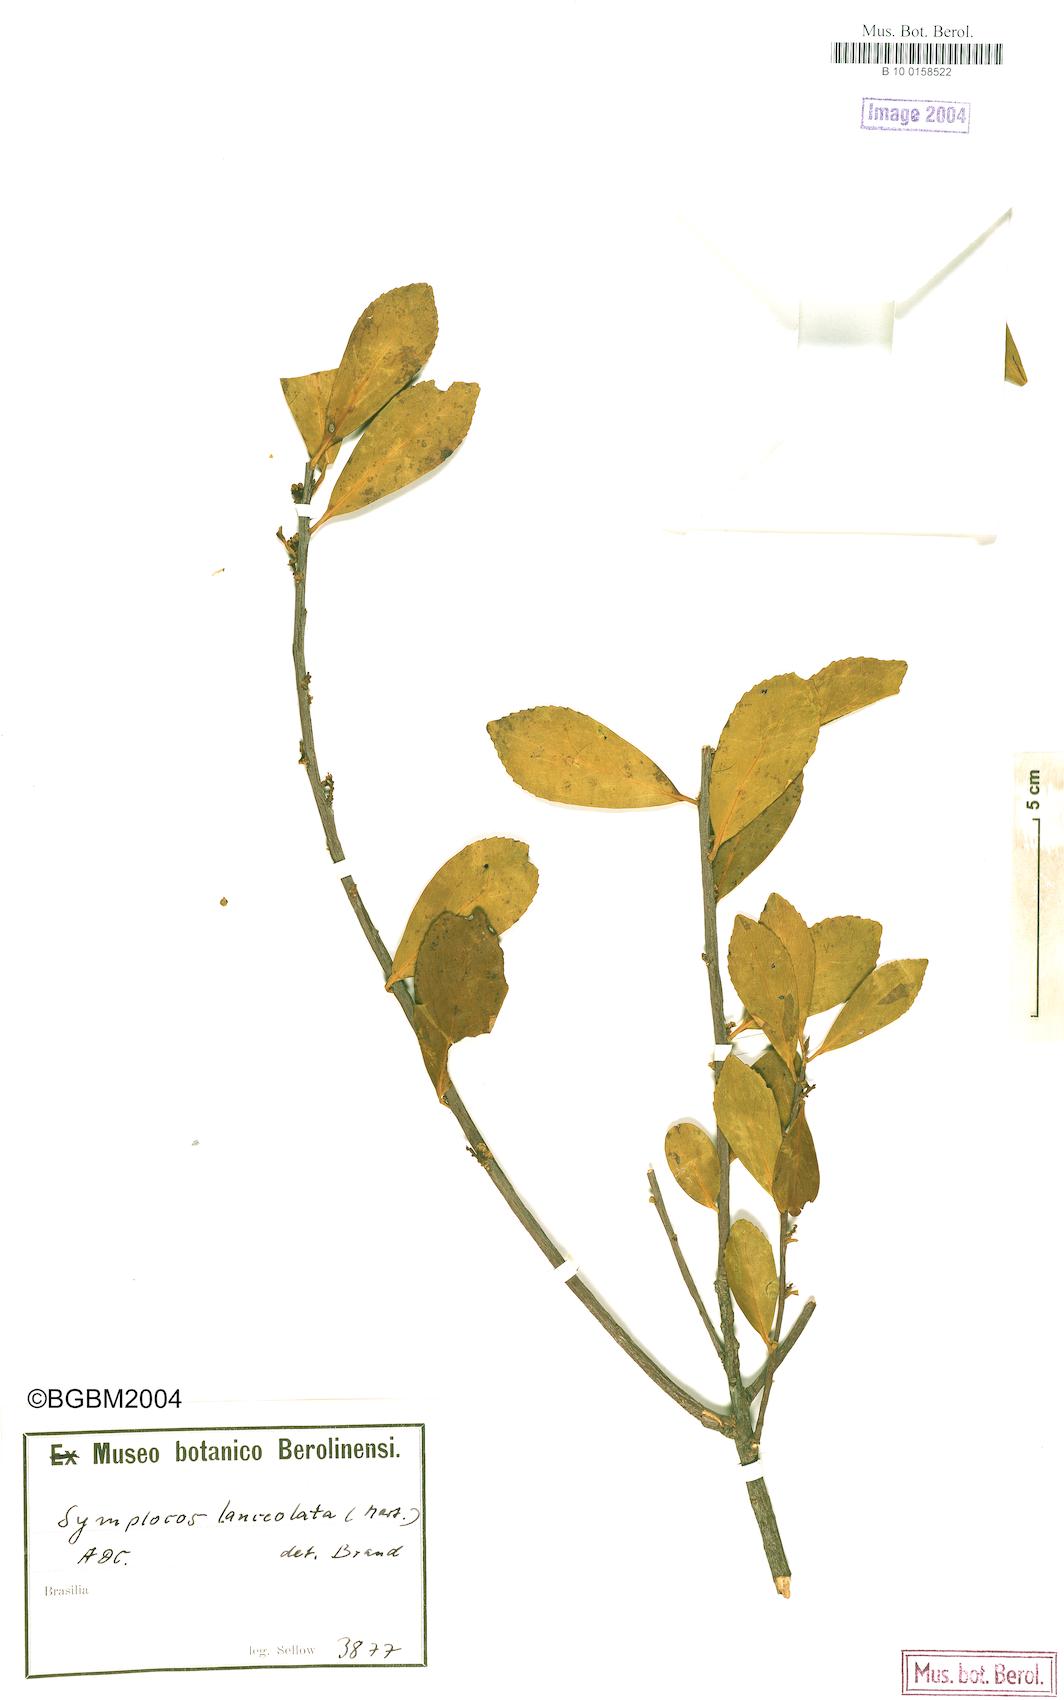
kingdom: Plantae
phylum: Tracheophyta
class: Magnoliopsida
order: Ericales
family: Symplocaceae
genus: Symplocos
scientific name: Symplocos oblongifolia
